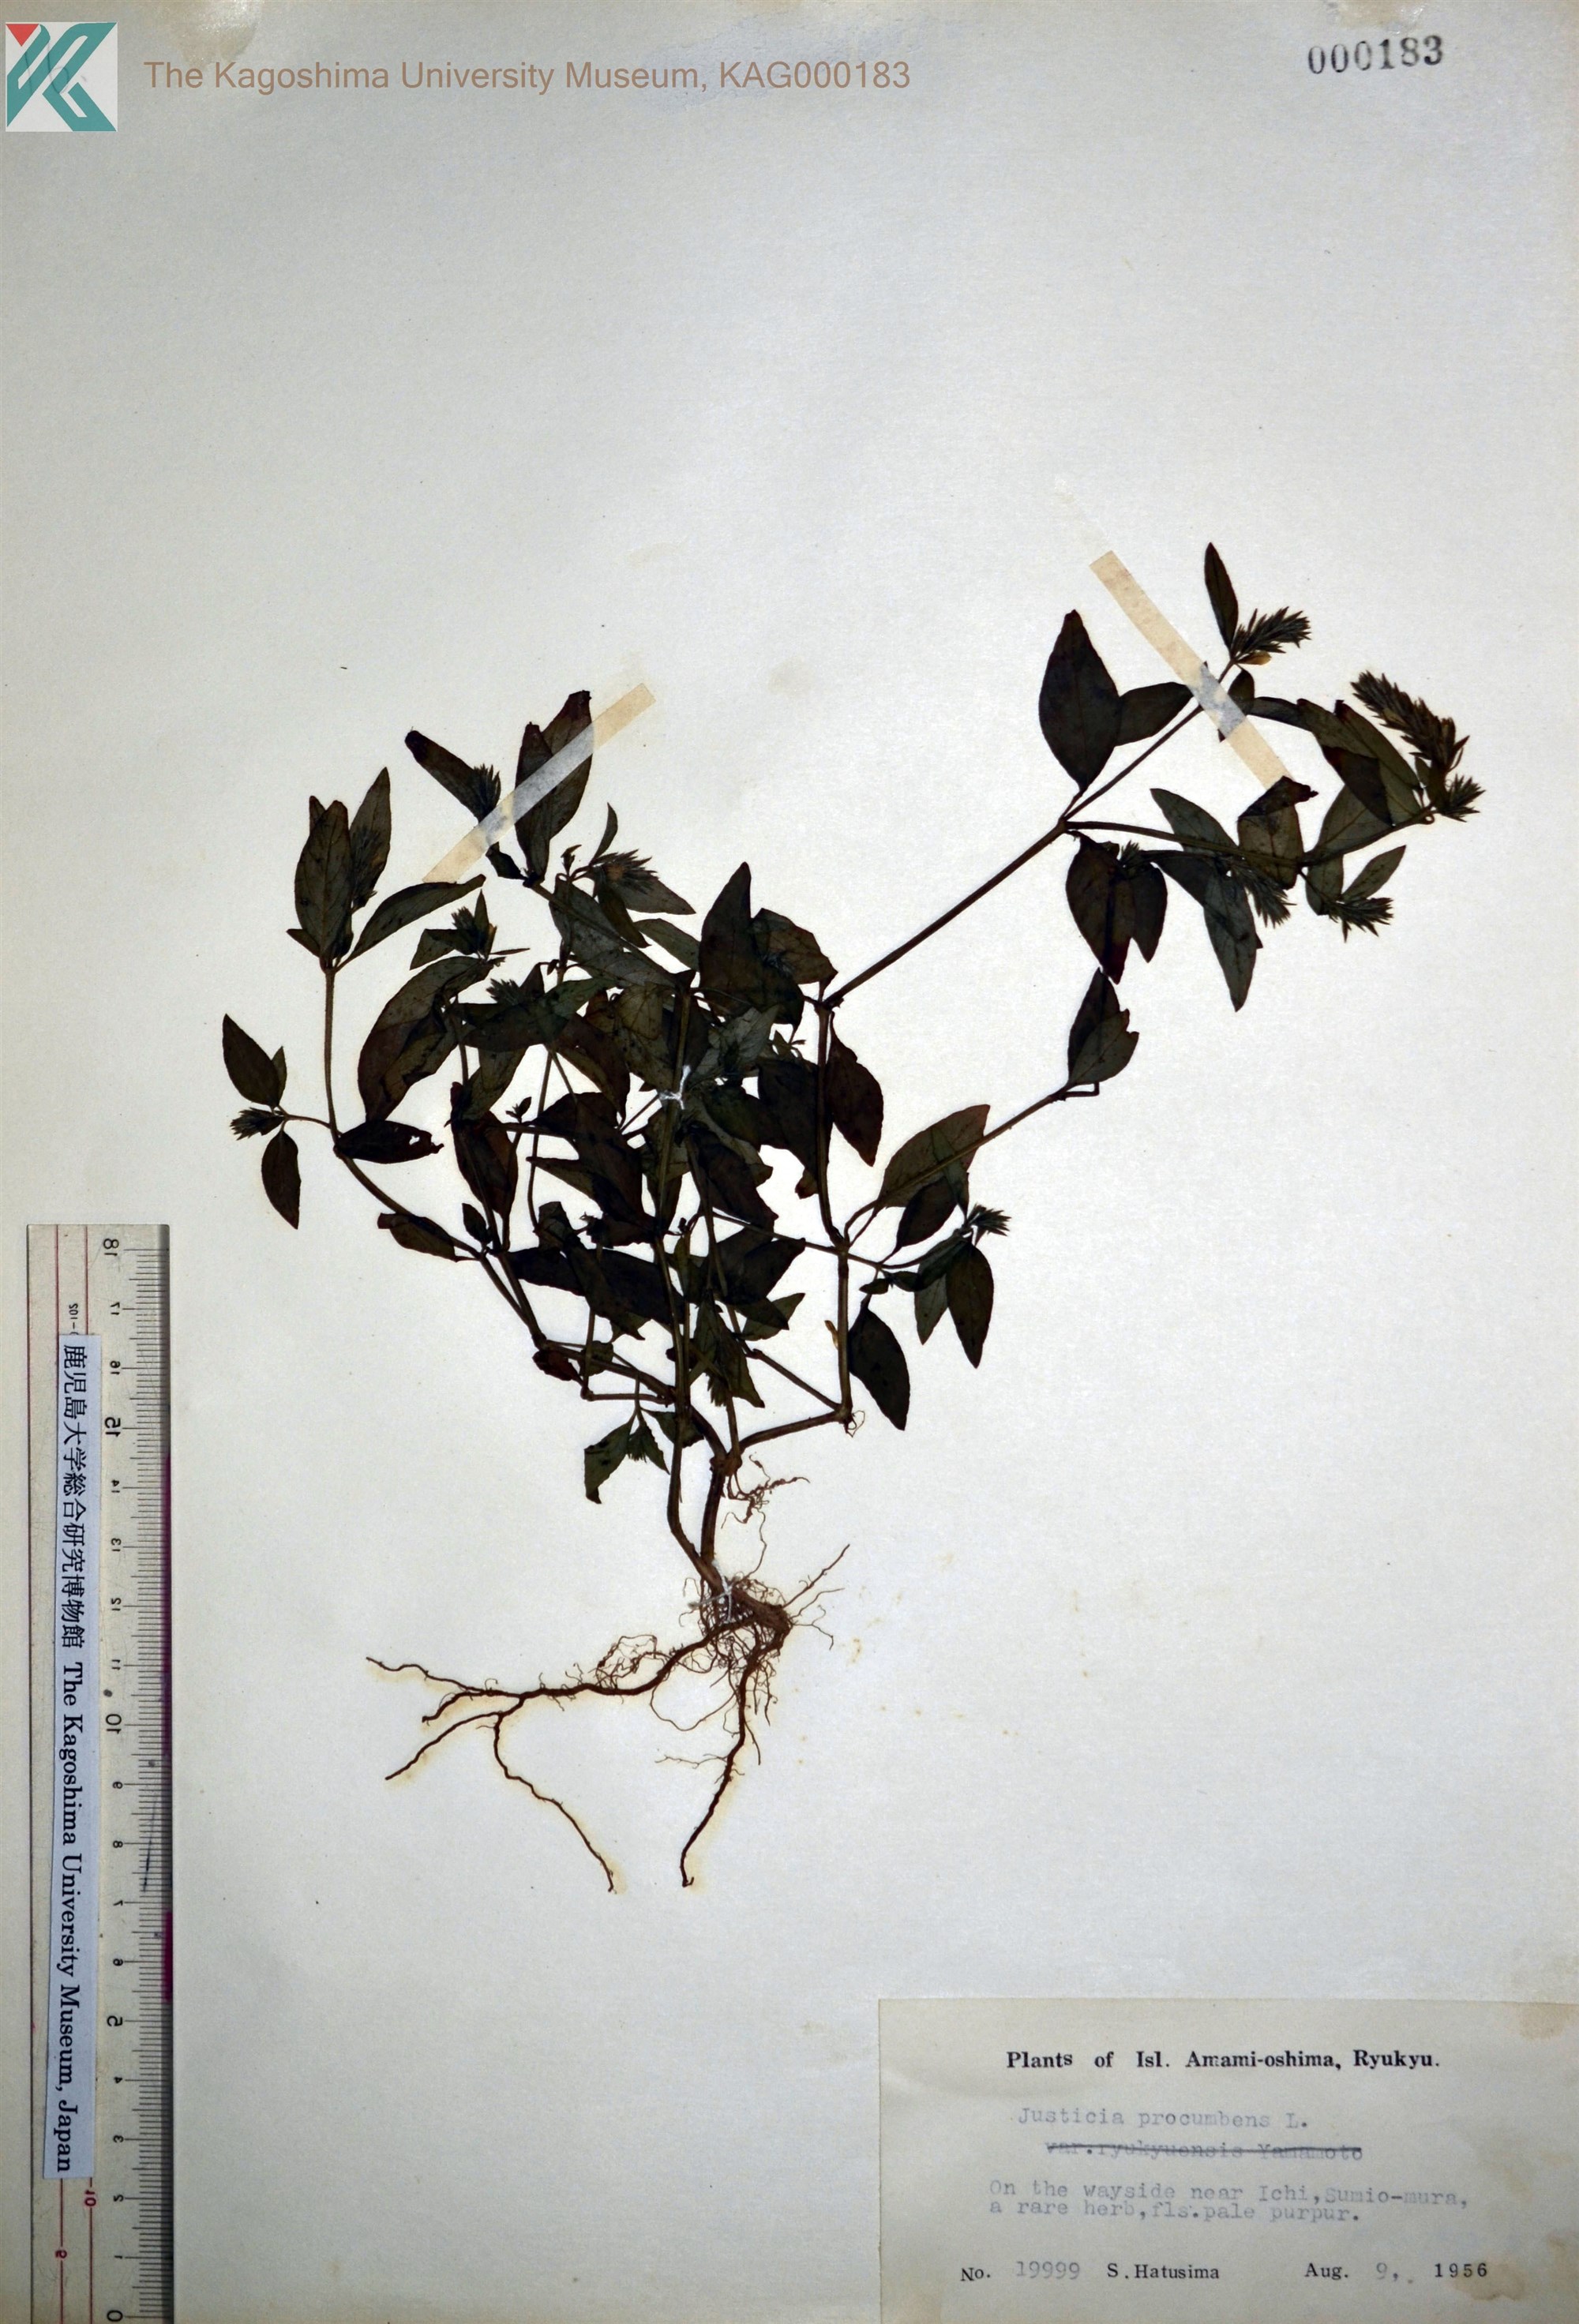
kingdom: Plantae
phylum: Tracheophyta
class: Magnoliopsida
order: Lamiales
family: Acanthaceae
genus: Rostellularia
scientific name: Rostellularia procumbens
